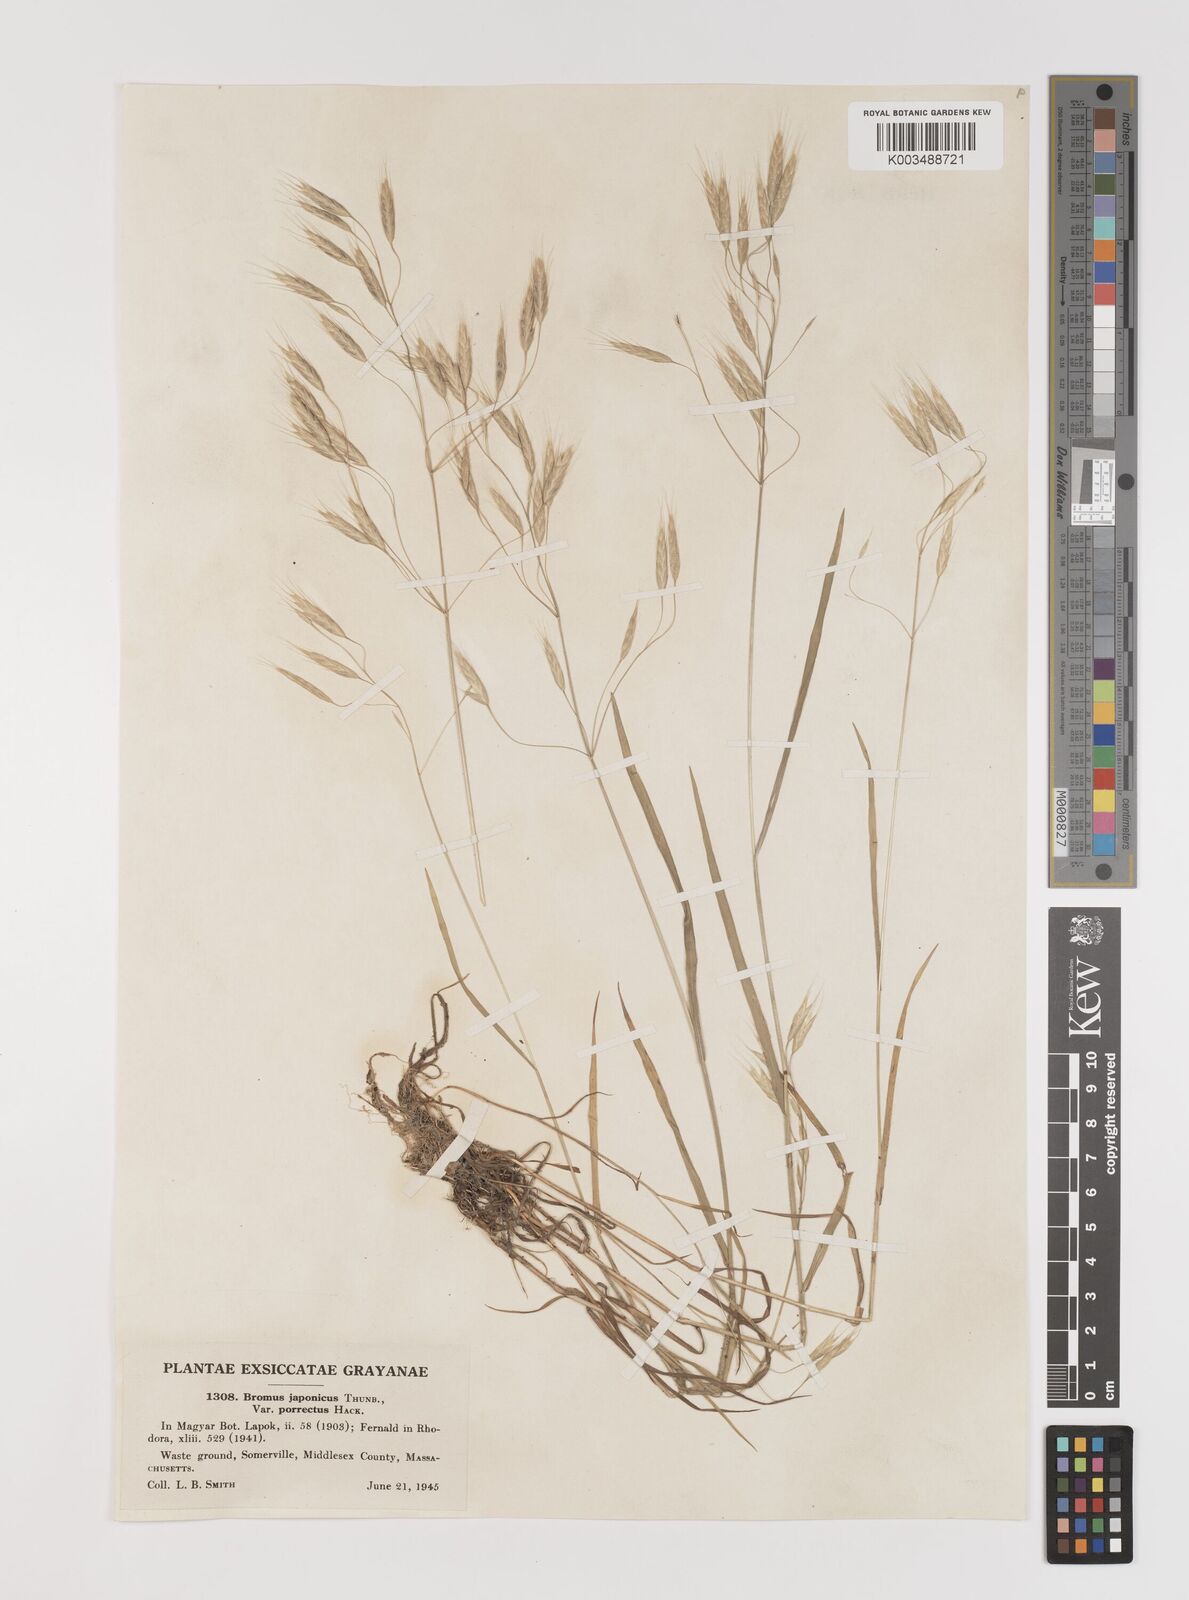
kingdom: Plantae
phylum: Tracheophyta
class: Liliopsida
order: Poales
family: Poaceae
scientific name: Poaceae
